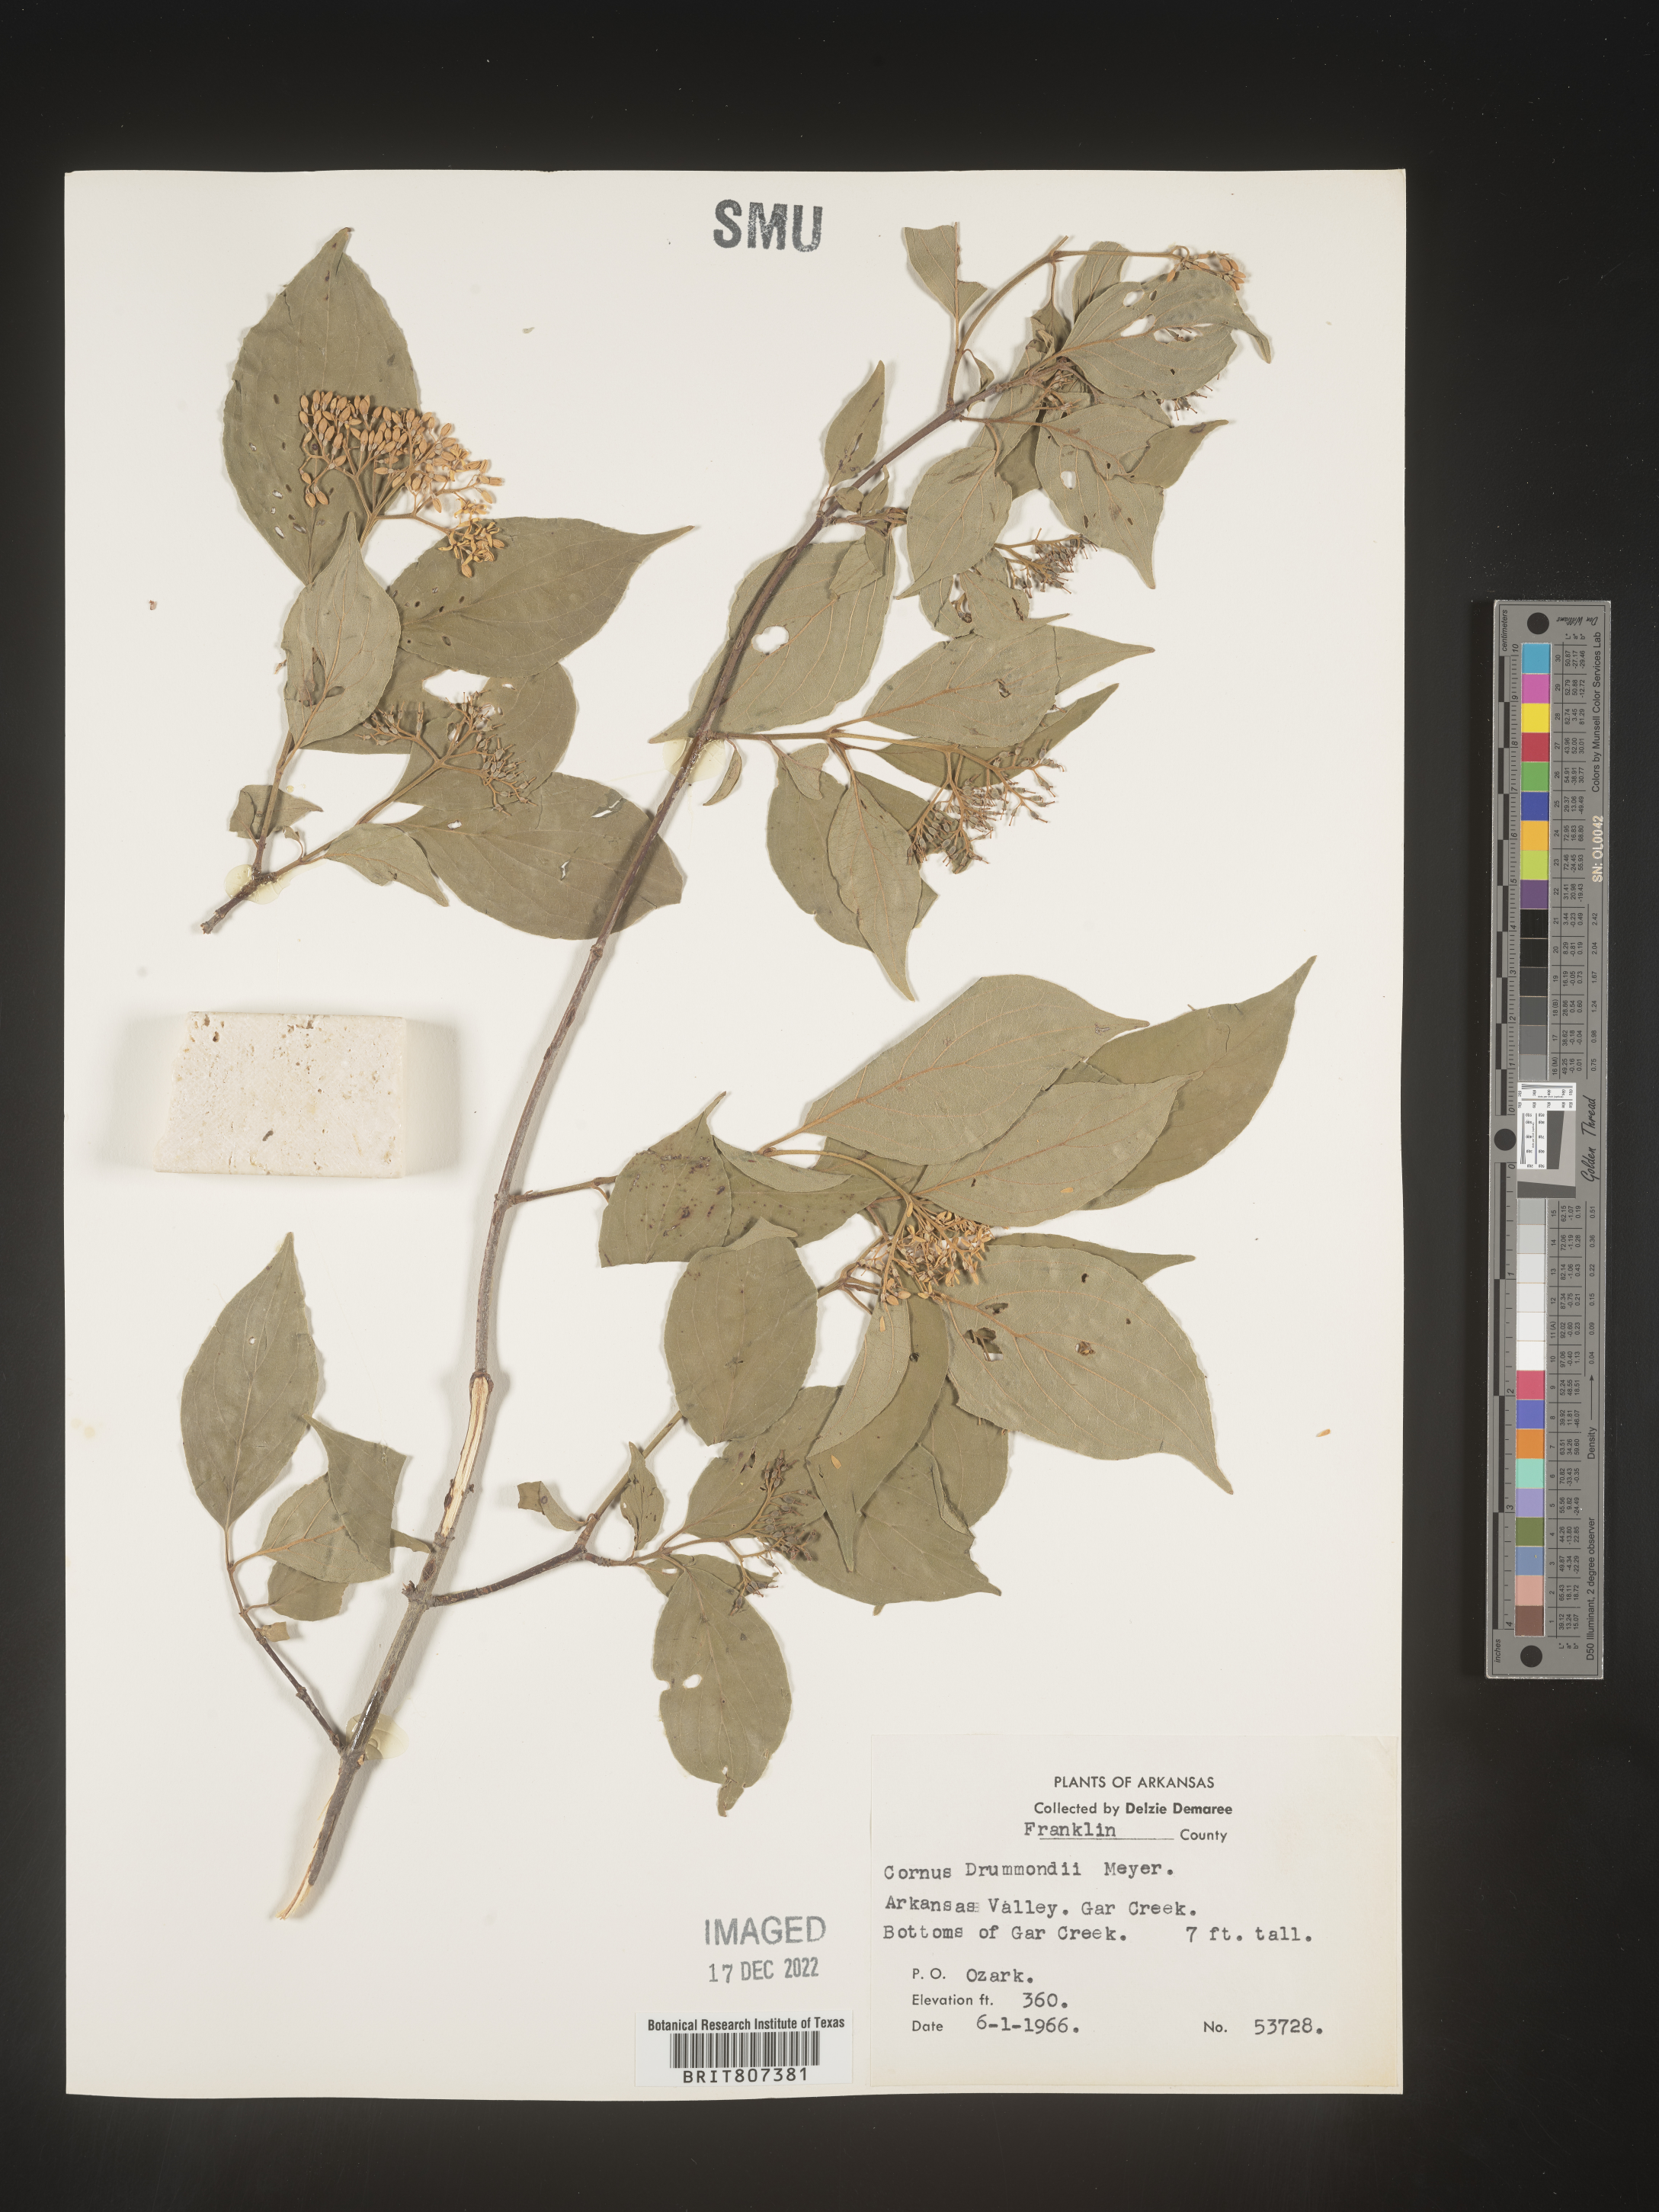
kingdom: Plantae
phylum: Tracheophyta
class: Magnoliopsida
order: Cornales
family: Cornaceae
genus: Cornus
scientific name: Cornus drummondii
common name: Rough-leaf dogwood
